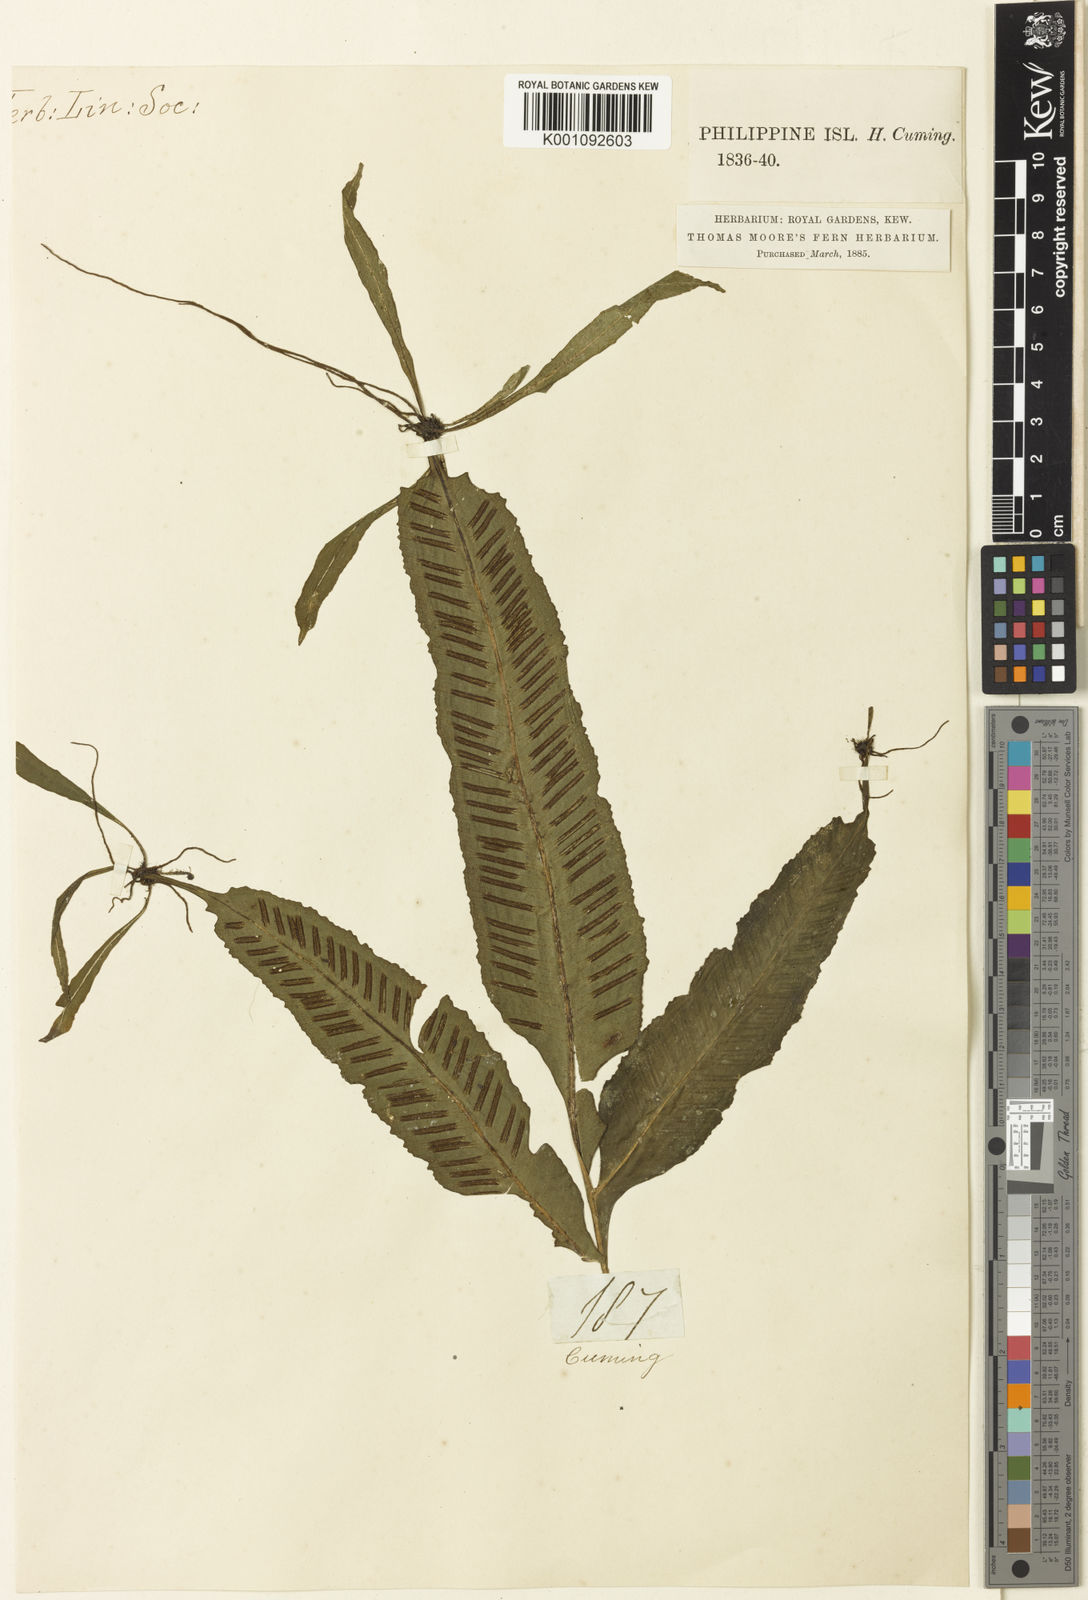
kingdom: Plantae
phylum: Tracheophyta
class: Polypodiopsida
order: Polypodiales
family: Aspleniaceae
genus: Asplenium
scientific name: Asplenium
